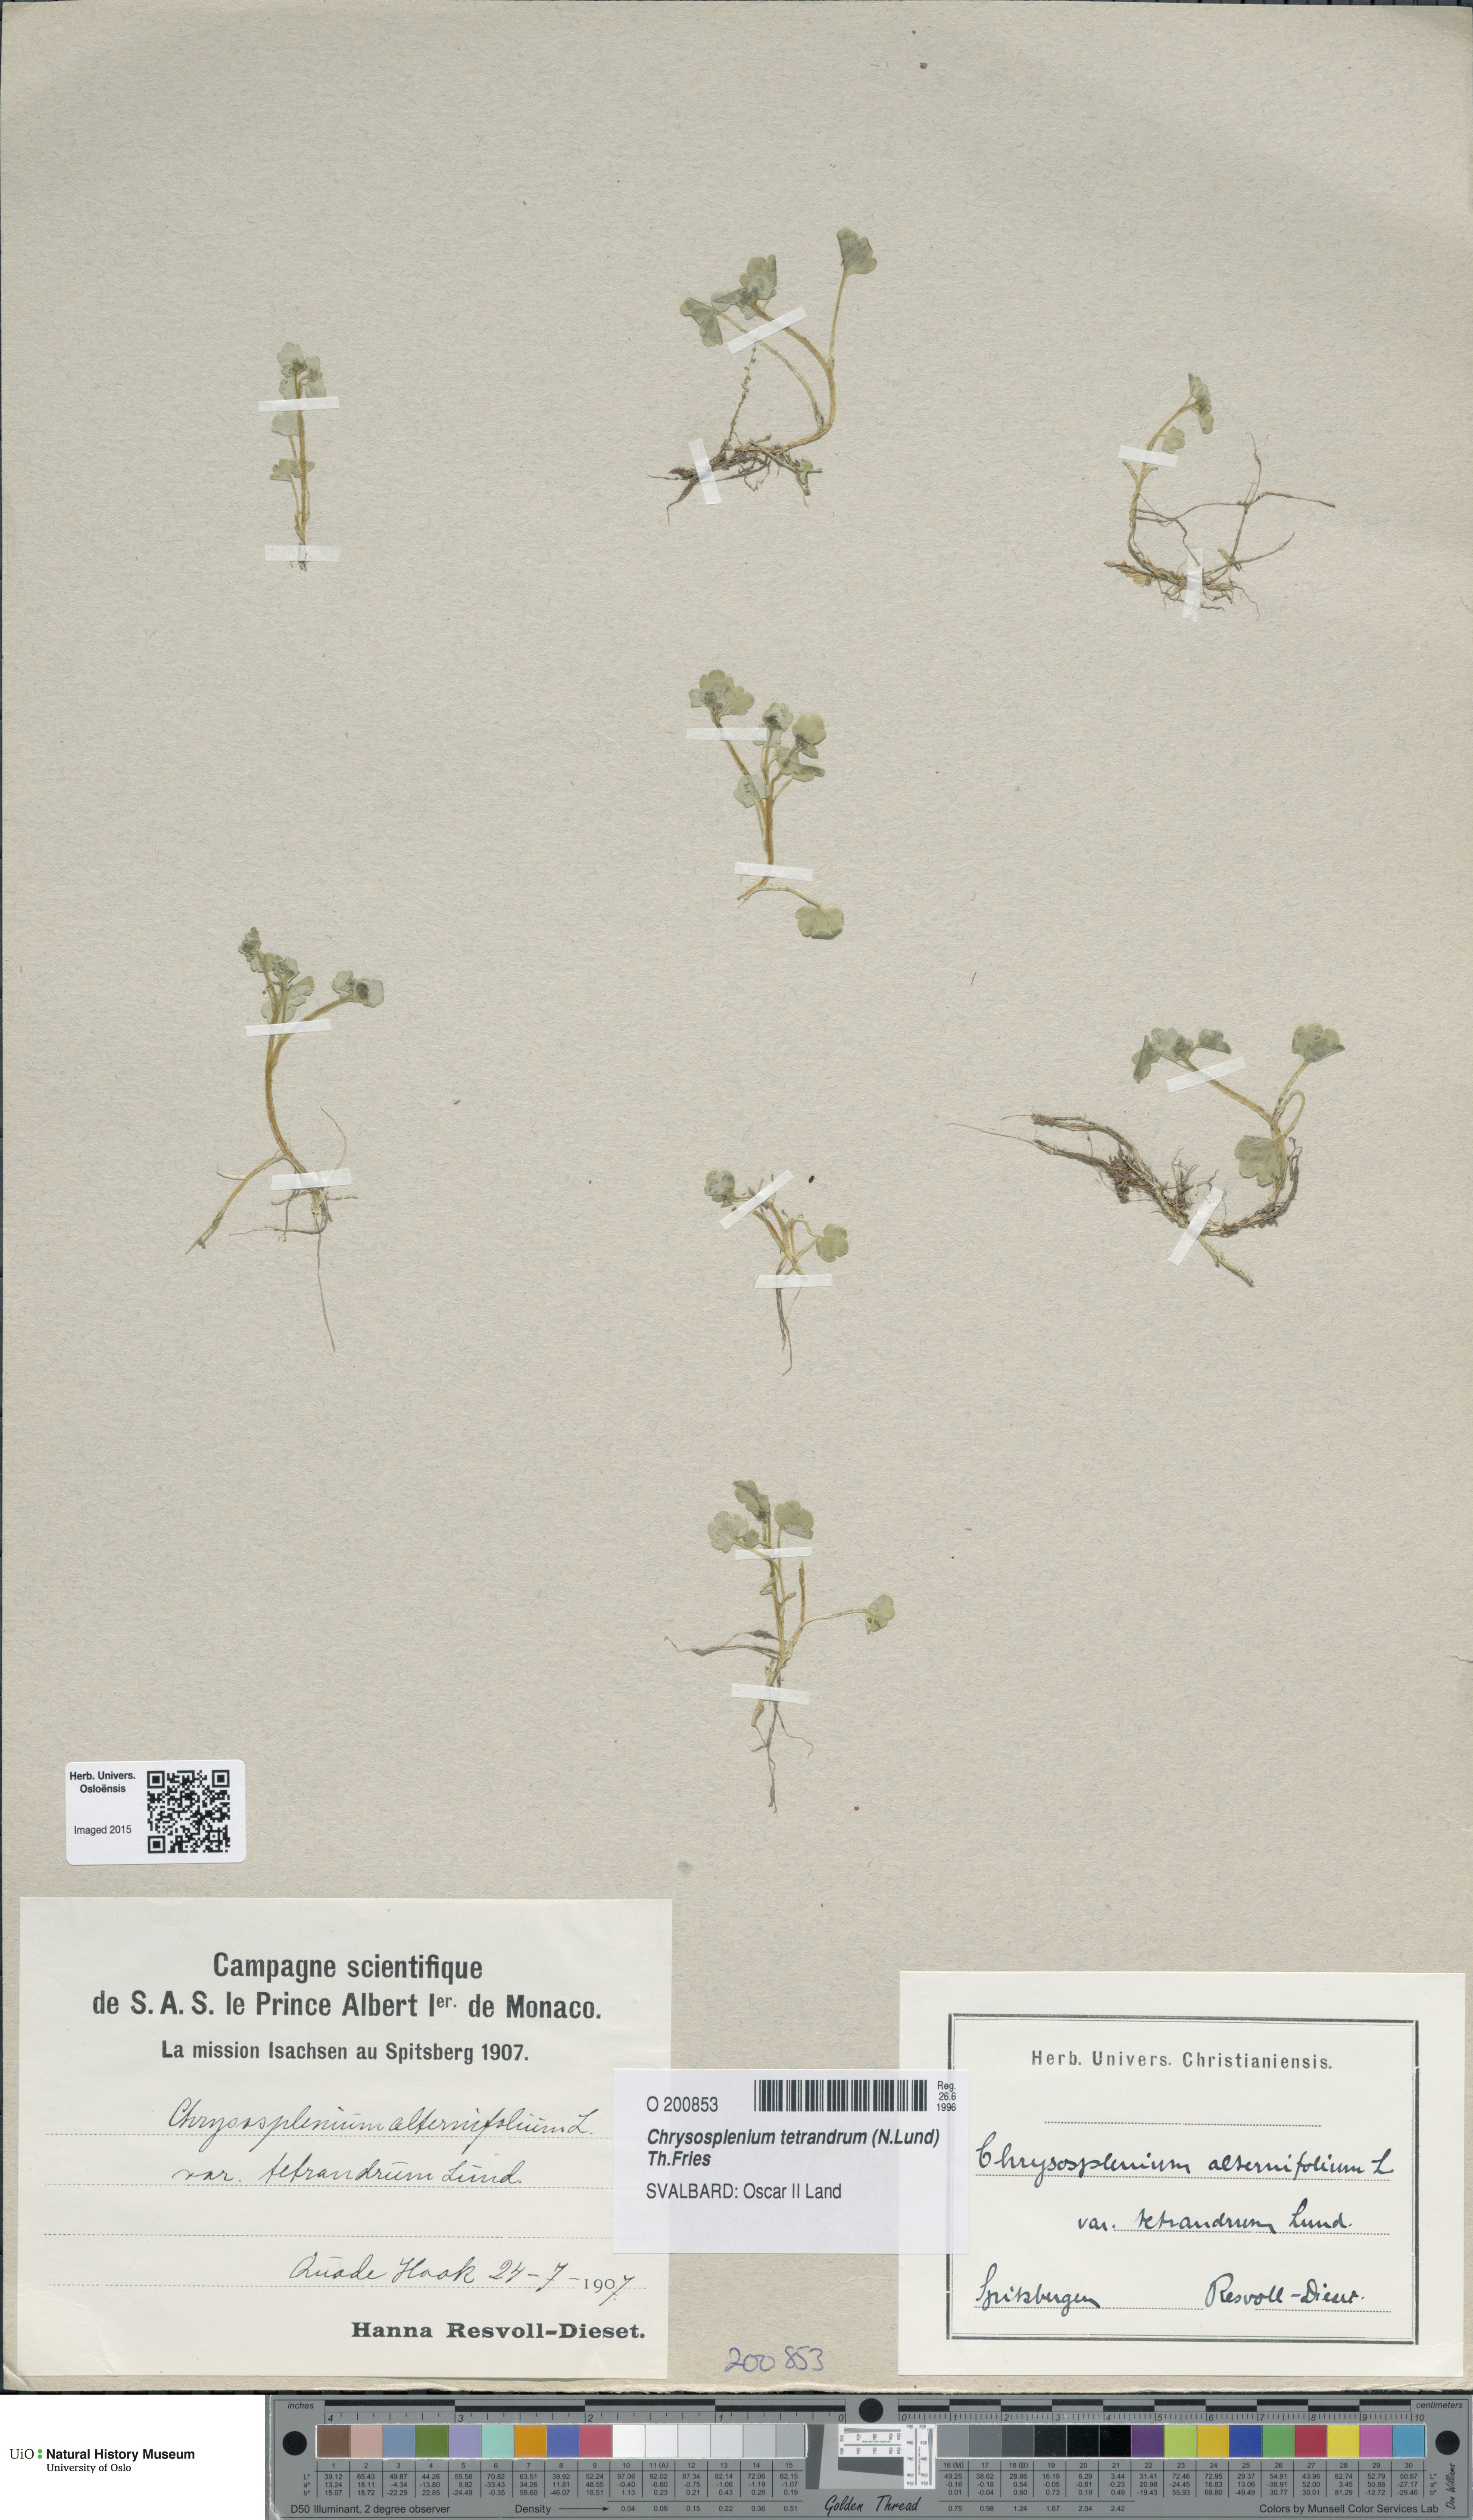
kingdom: Plantae
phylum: Tracheophyta
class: Magnoliopsida
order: Saxifragales
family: Saxifragaceae
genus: Chrysosplenium
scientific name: Chrysosplenium tetrandrum
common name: Green saxifrage
